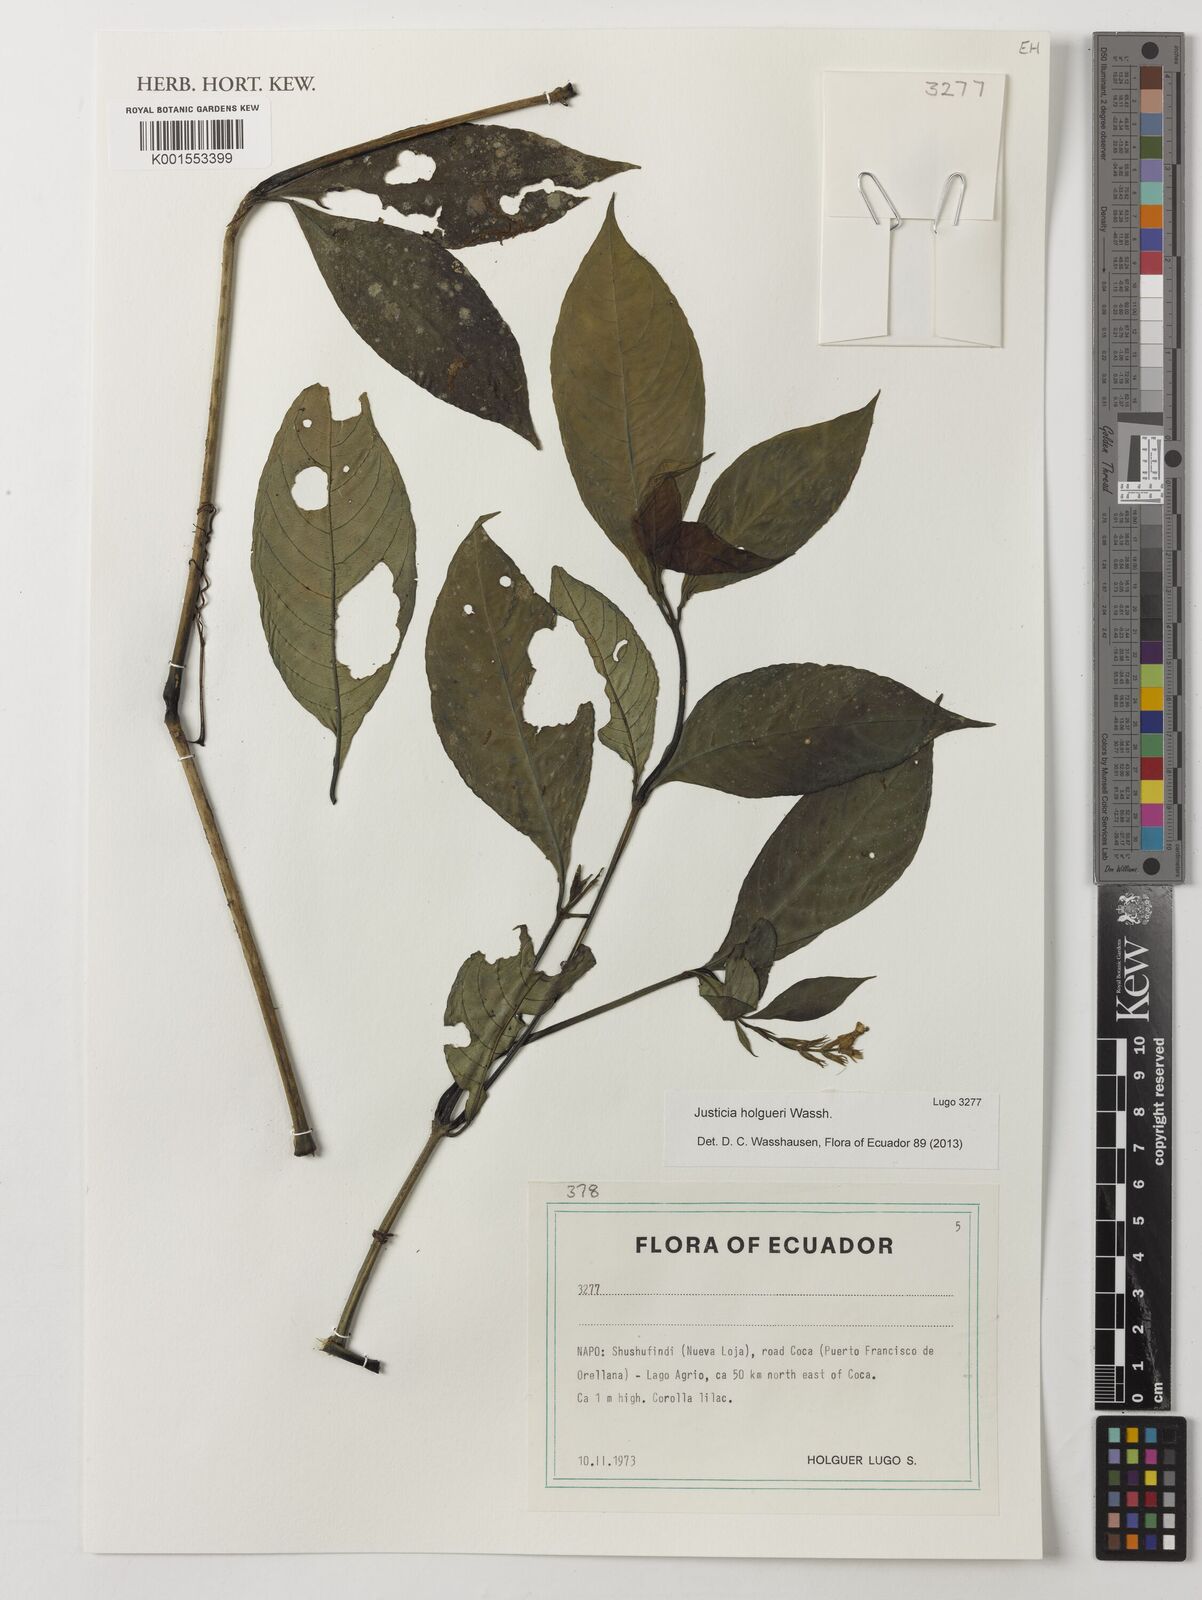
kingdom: Plantae
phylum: Tracheophyta
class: Magnoliopsida
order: Lamiales
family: Acanthaceae
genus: Justicia
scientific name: Justicia holgueri
